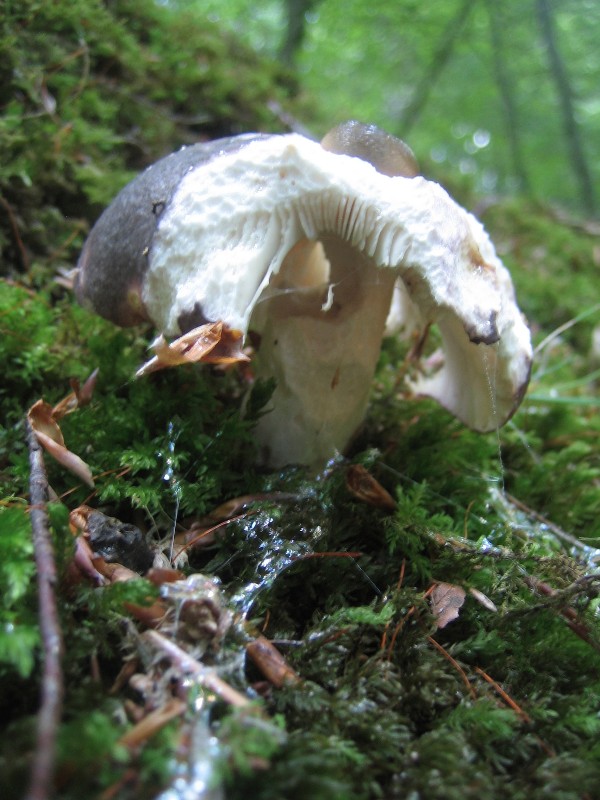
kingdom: Fungi
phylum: Basidiomycota
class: Agaricomycetes
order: Russulales
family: Russulaceae
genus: Russula
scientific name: Russula cyanoxantha
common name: broget skørhat
